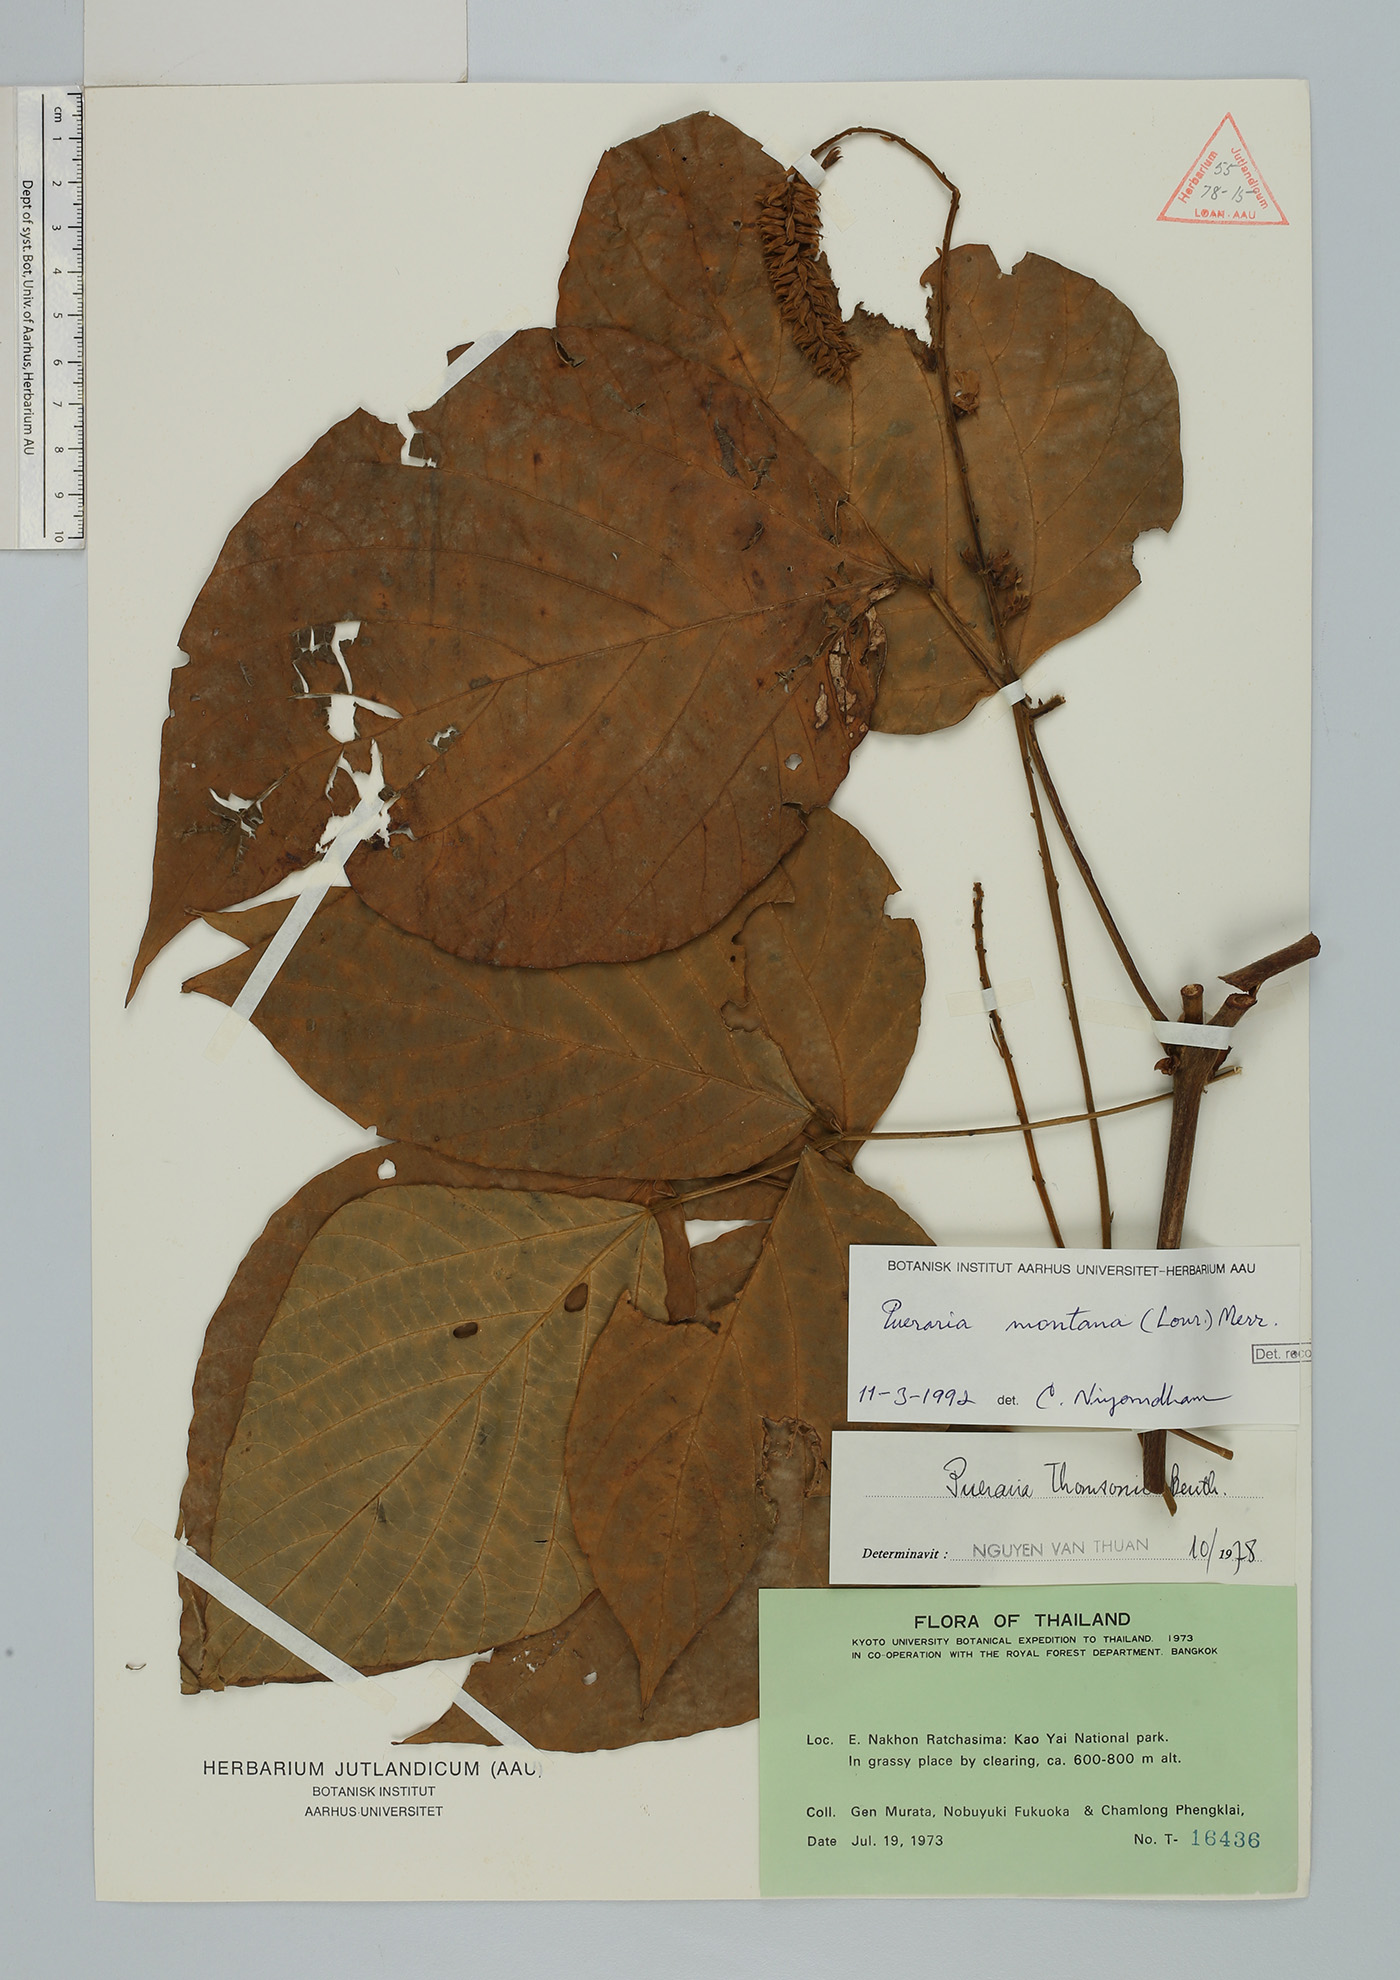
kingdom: Plantae
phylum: Tracheophyta
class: Magnoliopsida
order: Fabales
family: Fabaceae
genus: Pueraria
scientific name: Pueraria montana
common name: Kudzu
